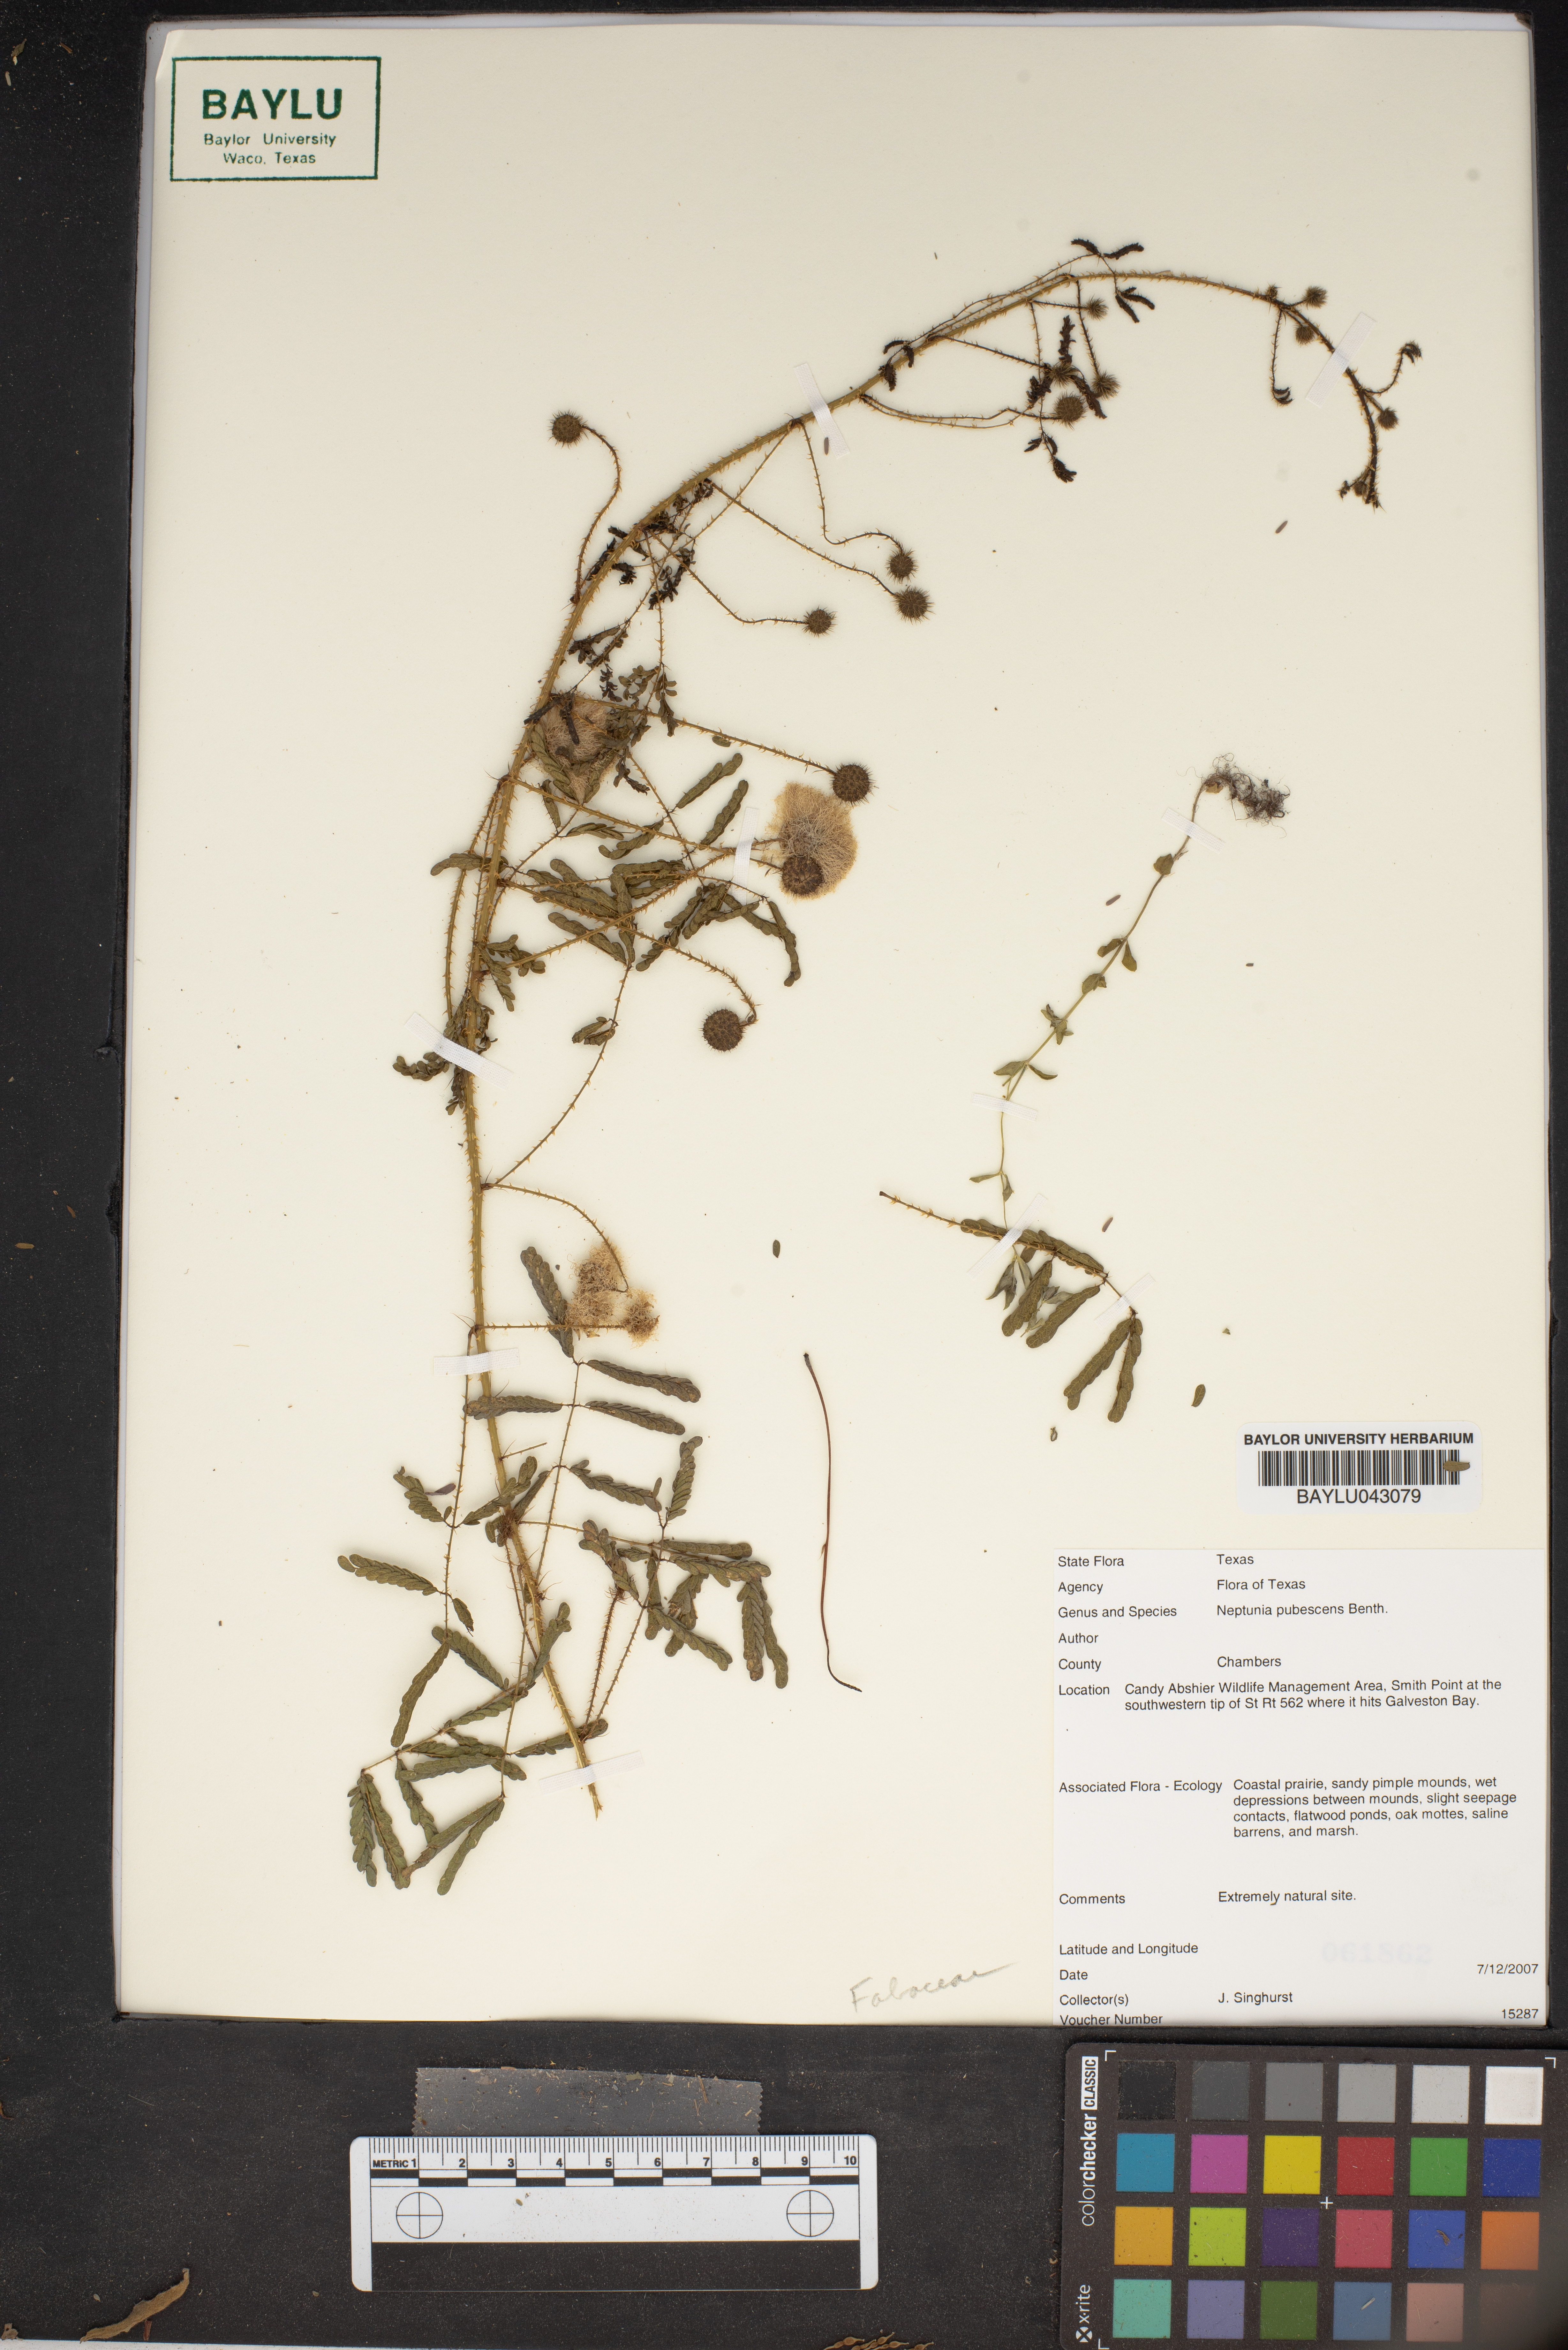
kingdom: Plantae
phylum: Tracheophyta
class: Magnoliopsida
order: Fabales
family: Fabaceae
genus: Neptunia
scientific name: Neptunia pubescens
